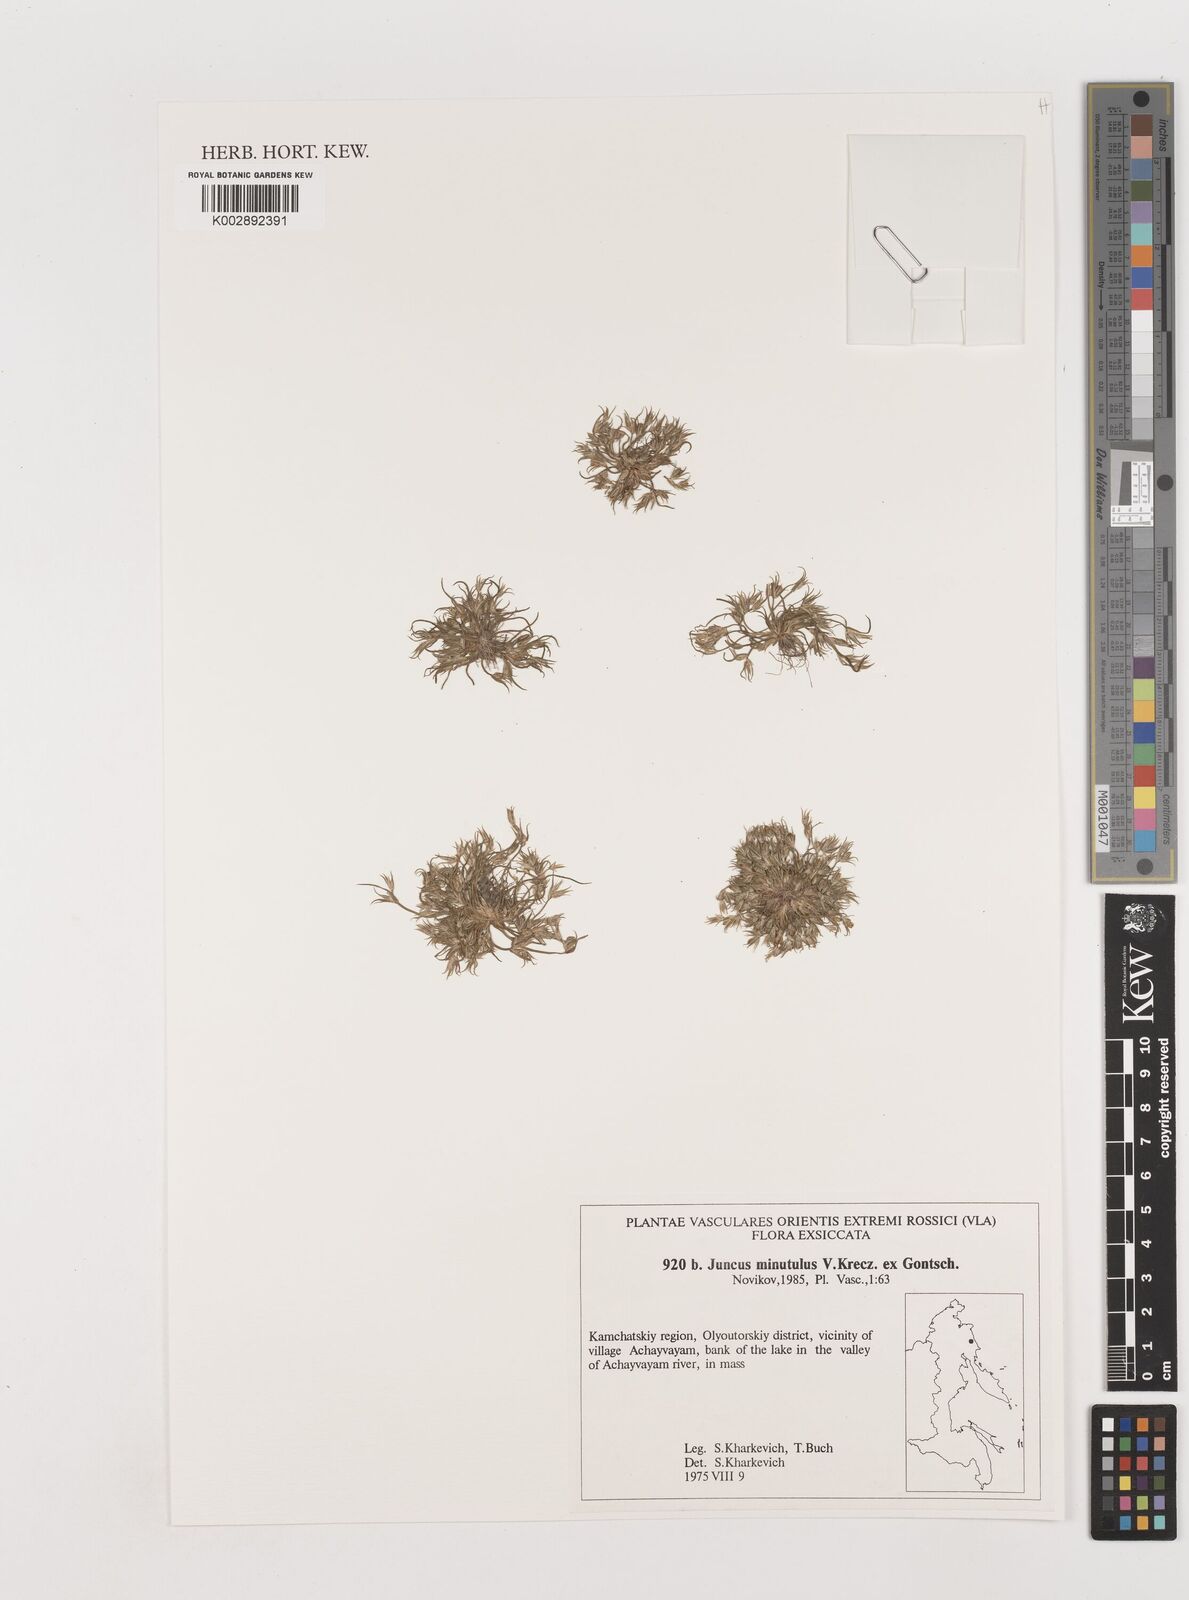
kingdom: Plantae
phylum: Tracheophyta
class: Liliopsida
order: Poales
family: Juncaceae
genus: Juncus
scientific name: Juncus minutulus
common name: Minute rush
